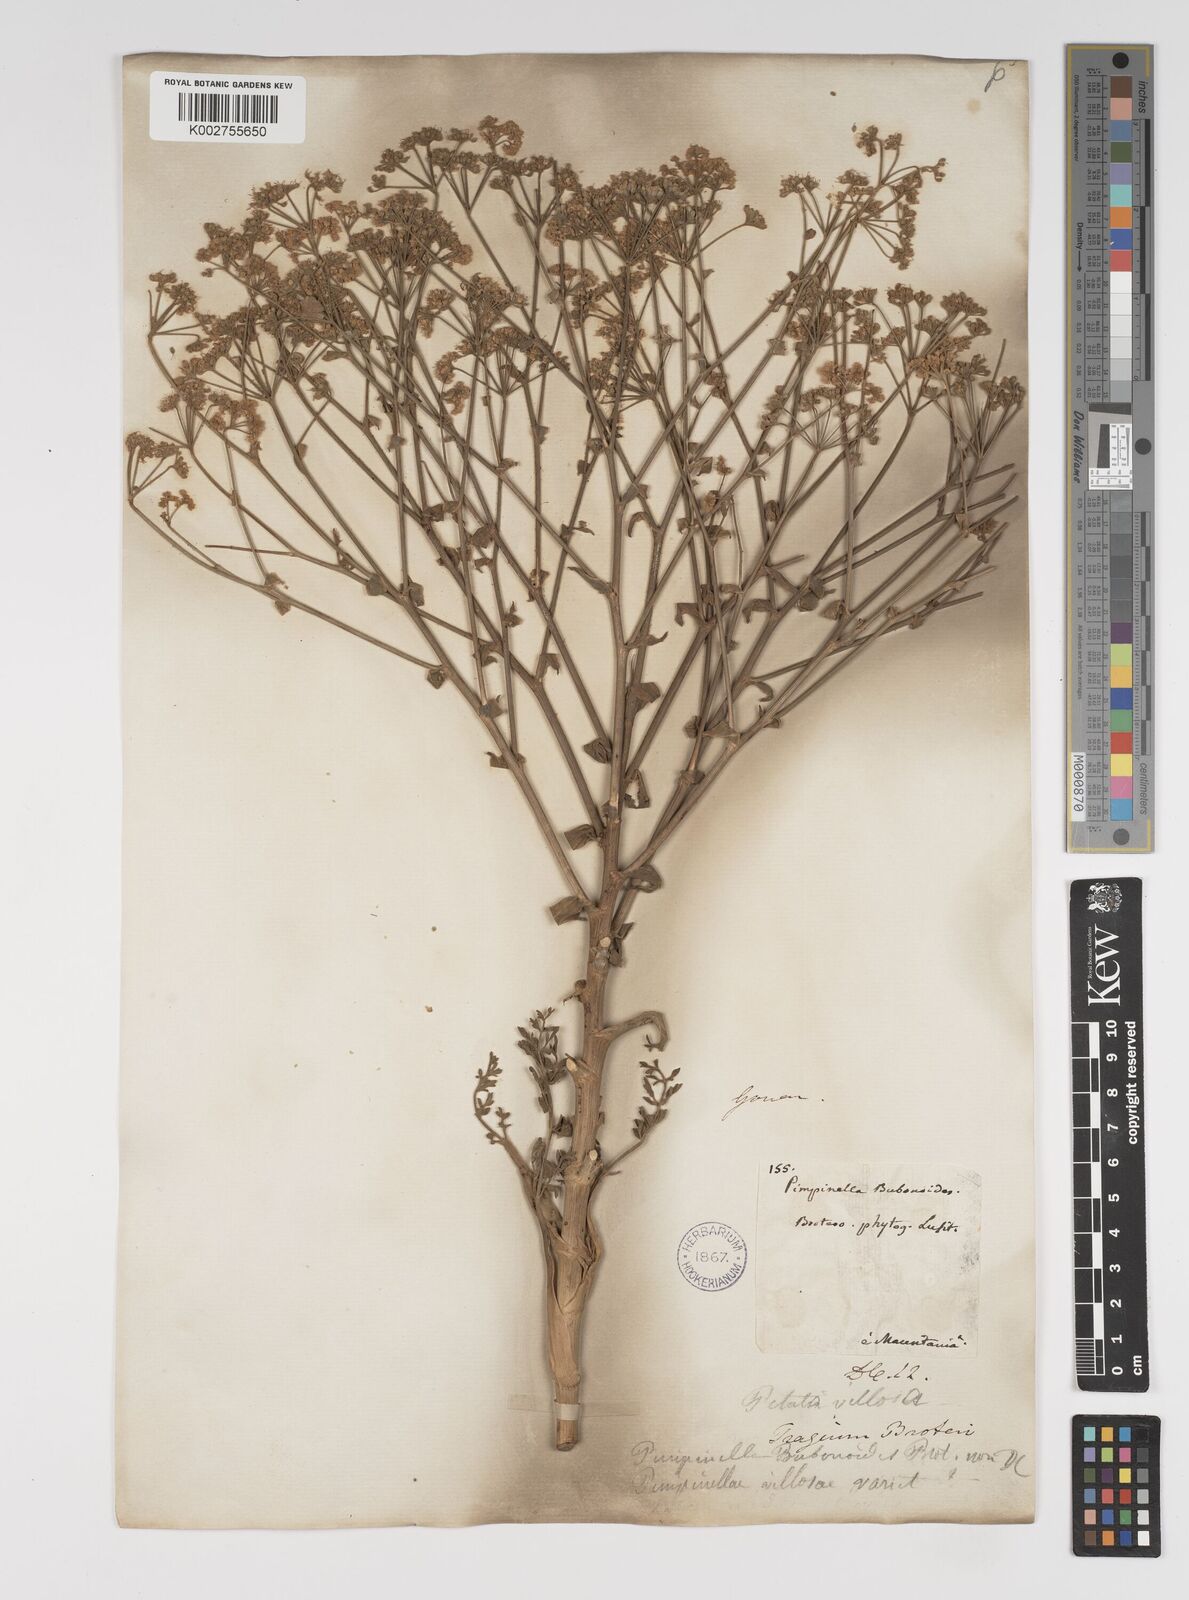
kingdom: Plantae
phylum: Tracheophyta
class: Magnoliopsida
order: Apiales
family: Apiaceae
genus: Pimpinella
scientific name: Pimpinella villosa
